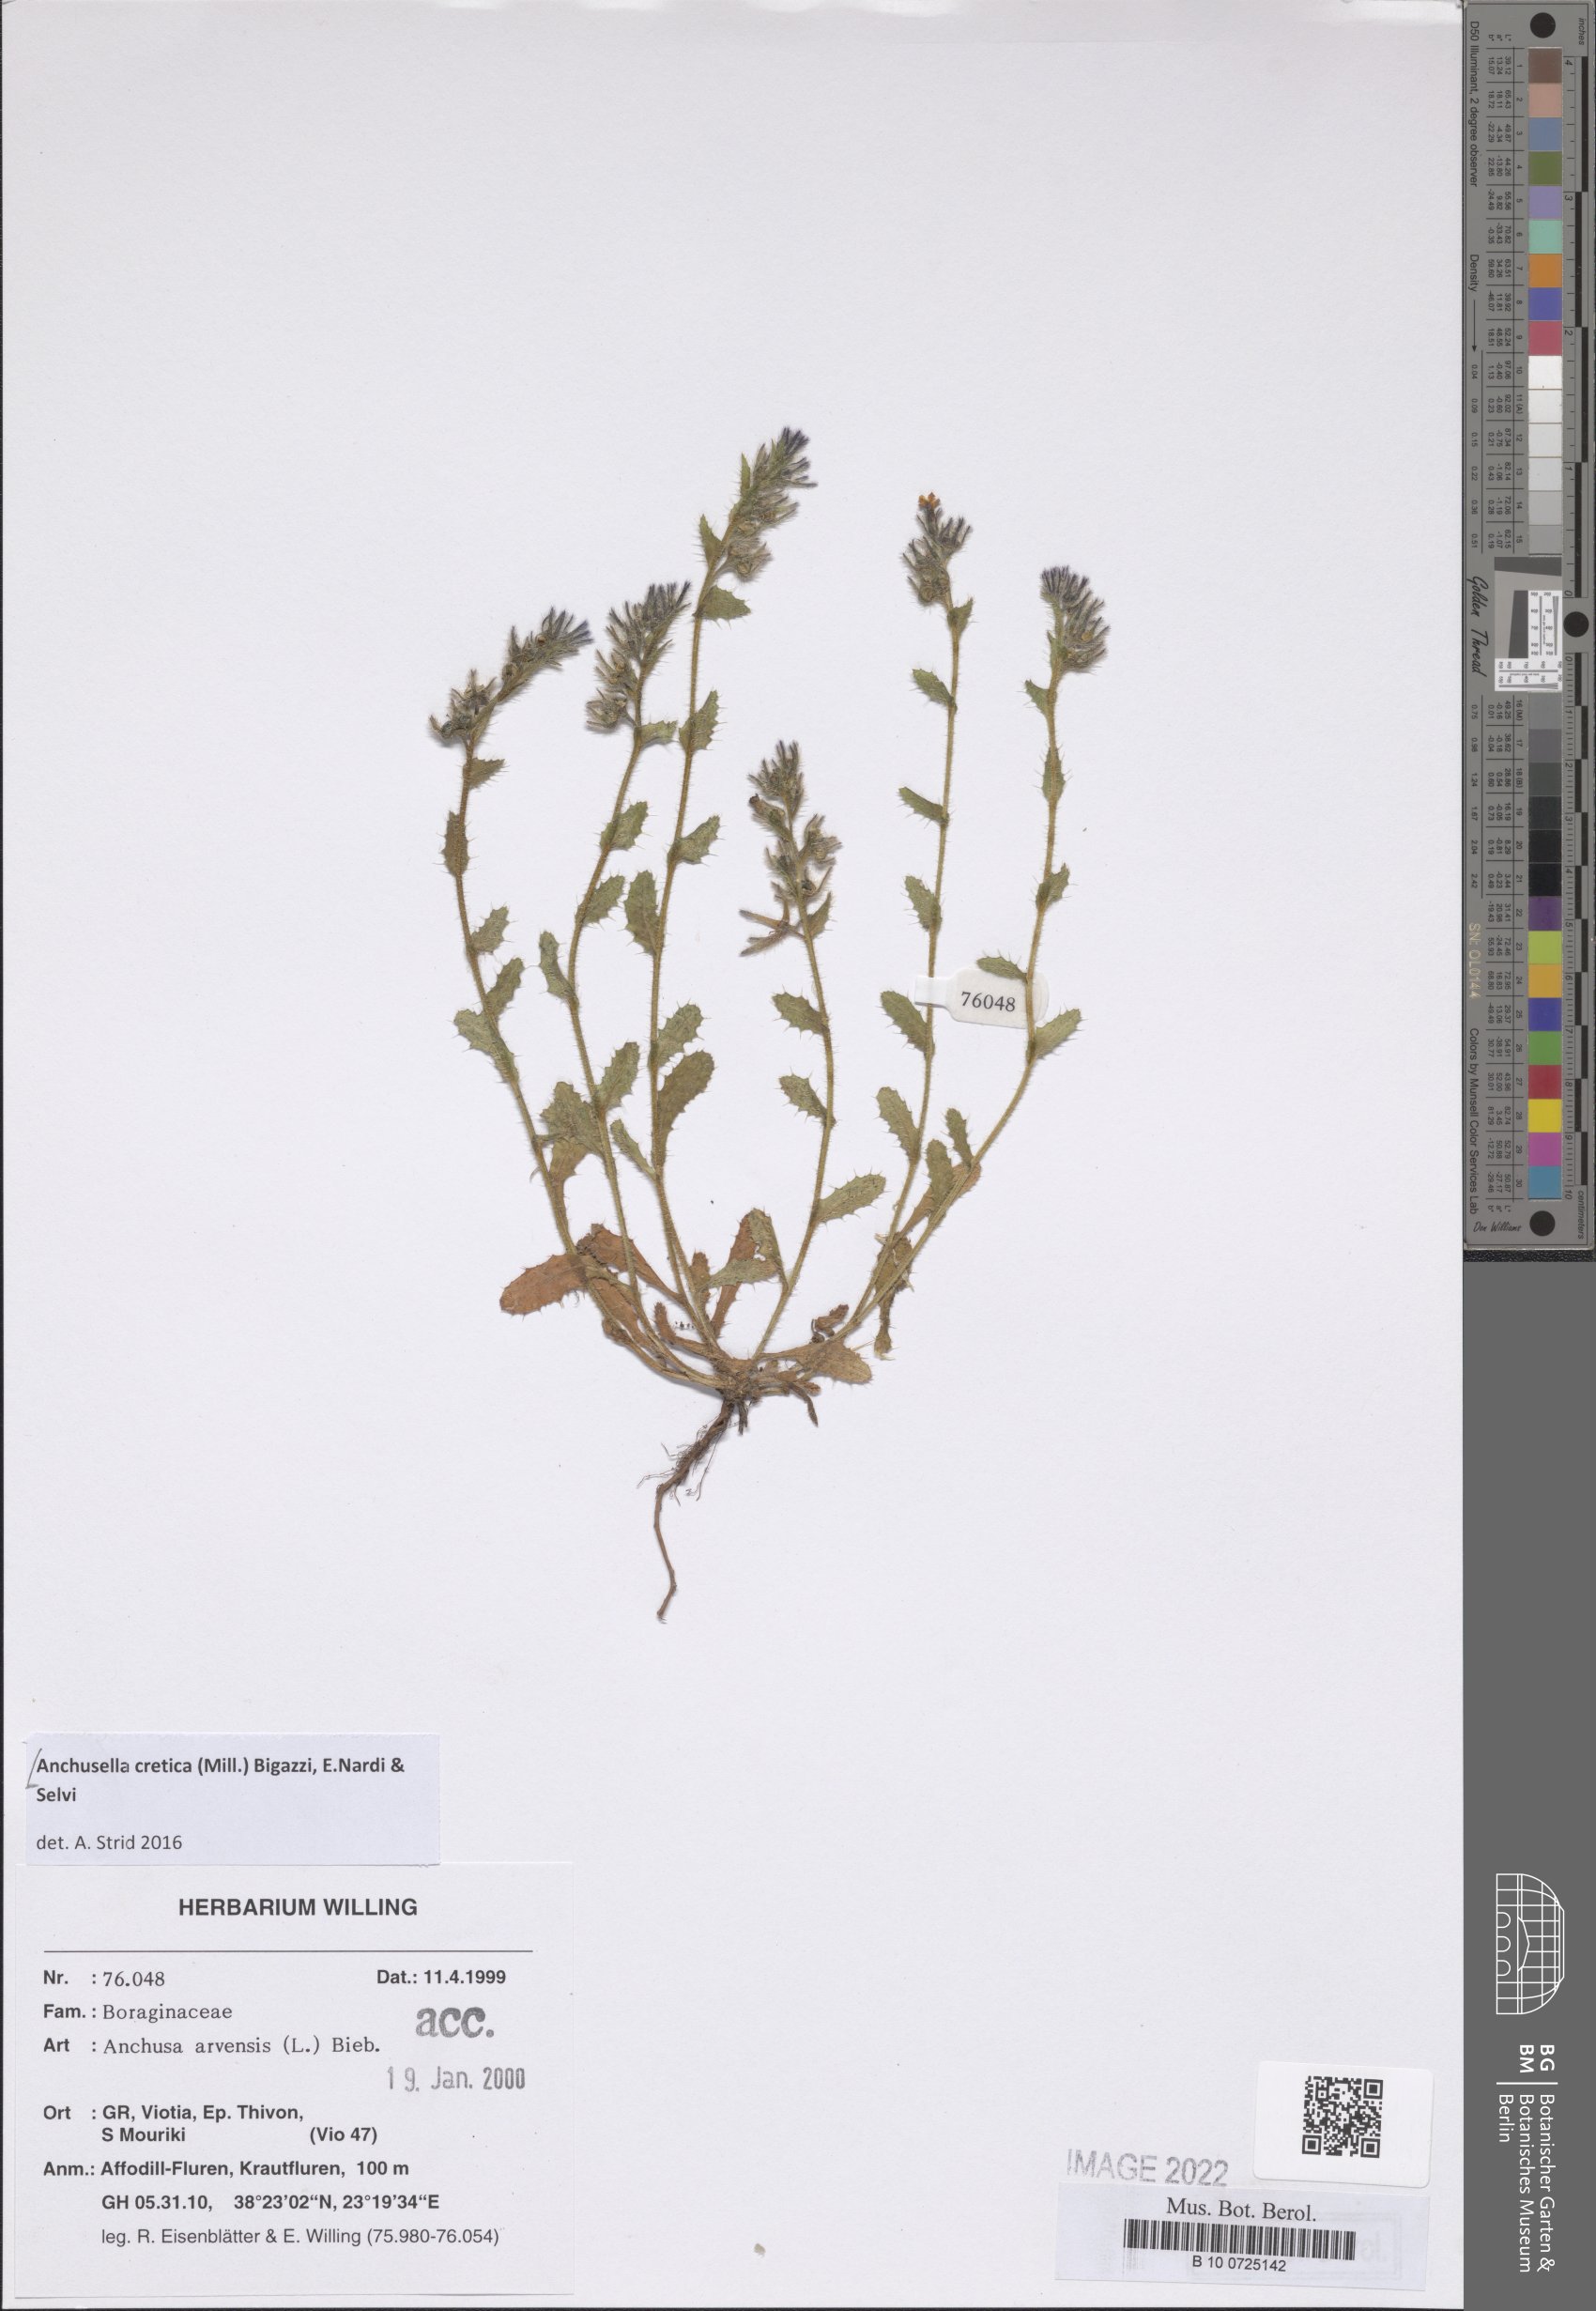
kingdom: Plantae
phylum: Tracheophyta
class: Magnoliopsida
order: Boraginales
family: Boraginaceae
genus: Anchusella
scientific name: Anchusella cretica
